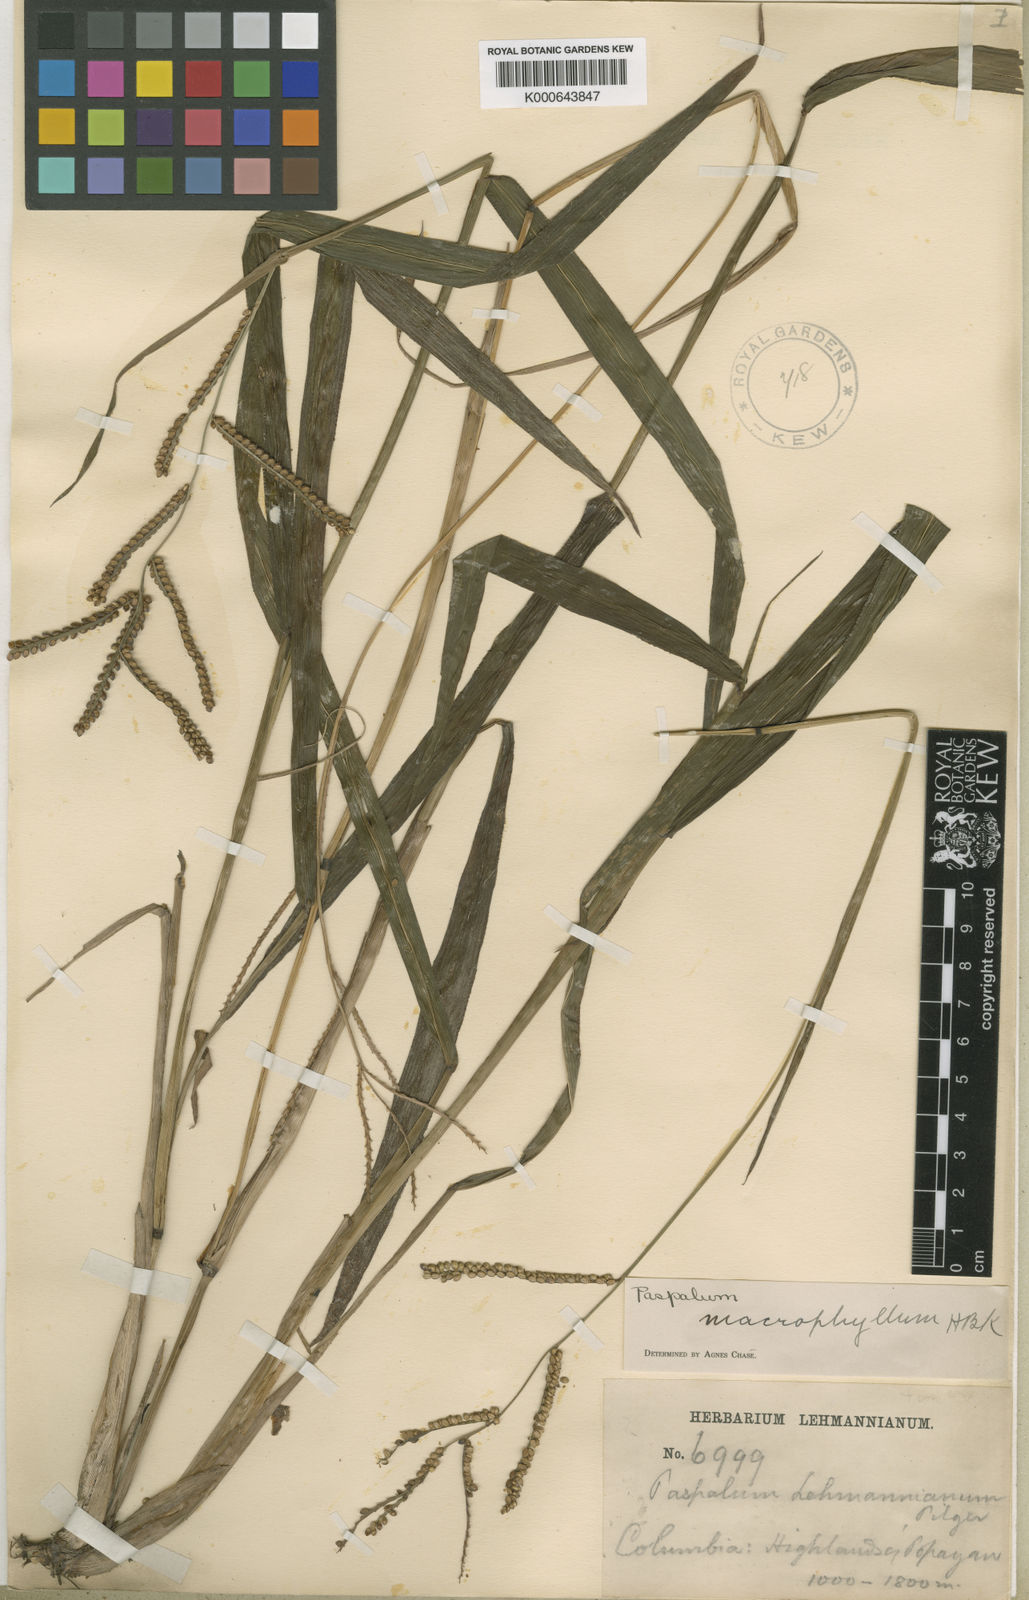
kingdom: Plantae
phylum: Tracheophyta
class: Liliopsida
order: Poales
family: Poaceae
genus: Paspalum
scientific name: Paspalum
